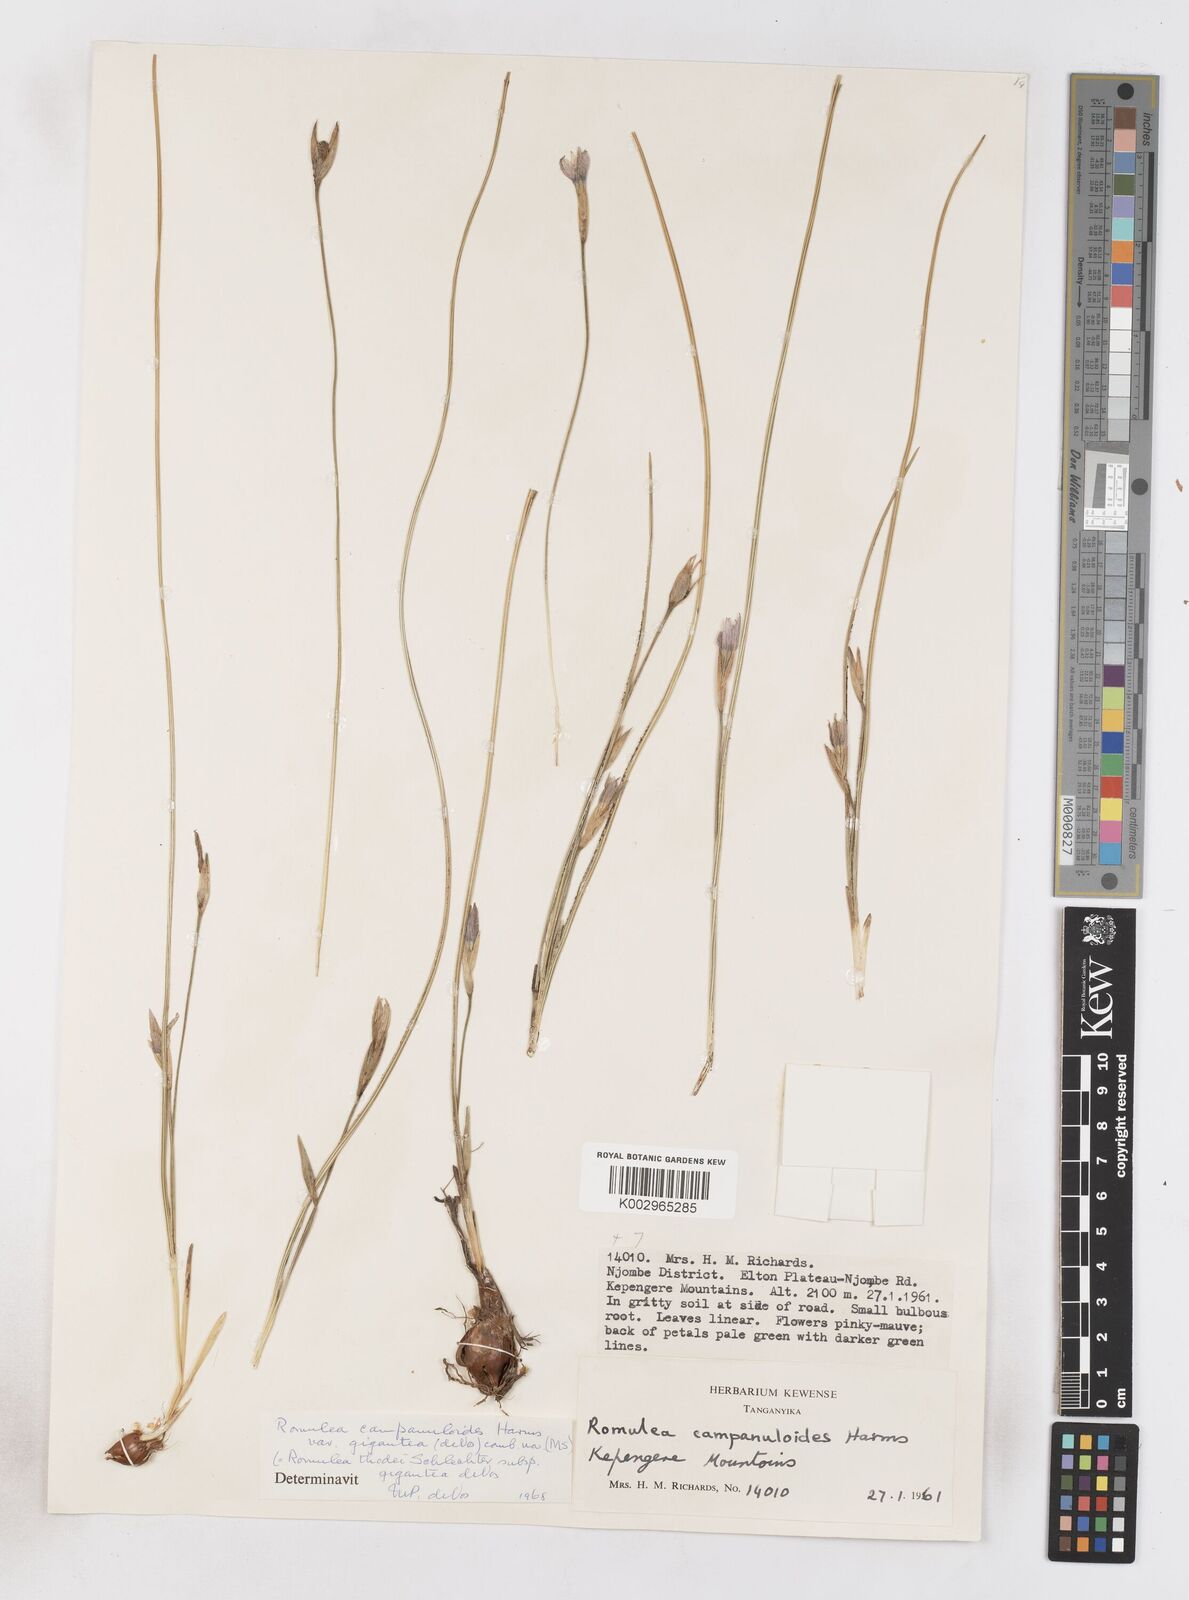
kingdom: Plantae
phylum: Tracheophyta
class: Liliopsida
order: Asparagales
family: Iridaceae
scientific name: Iridaceae
